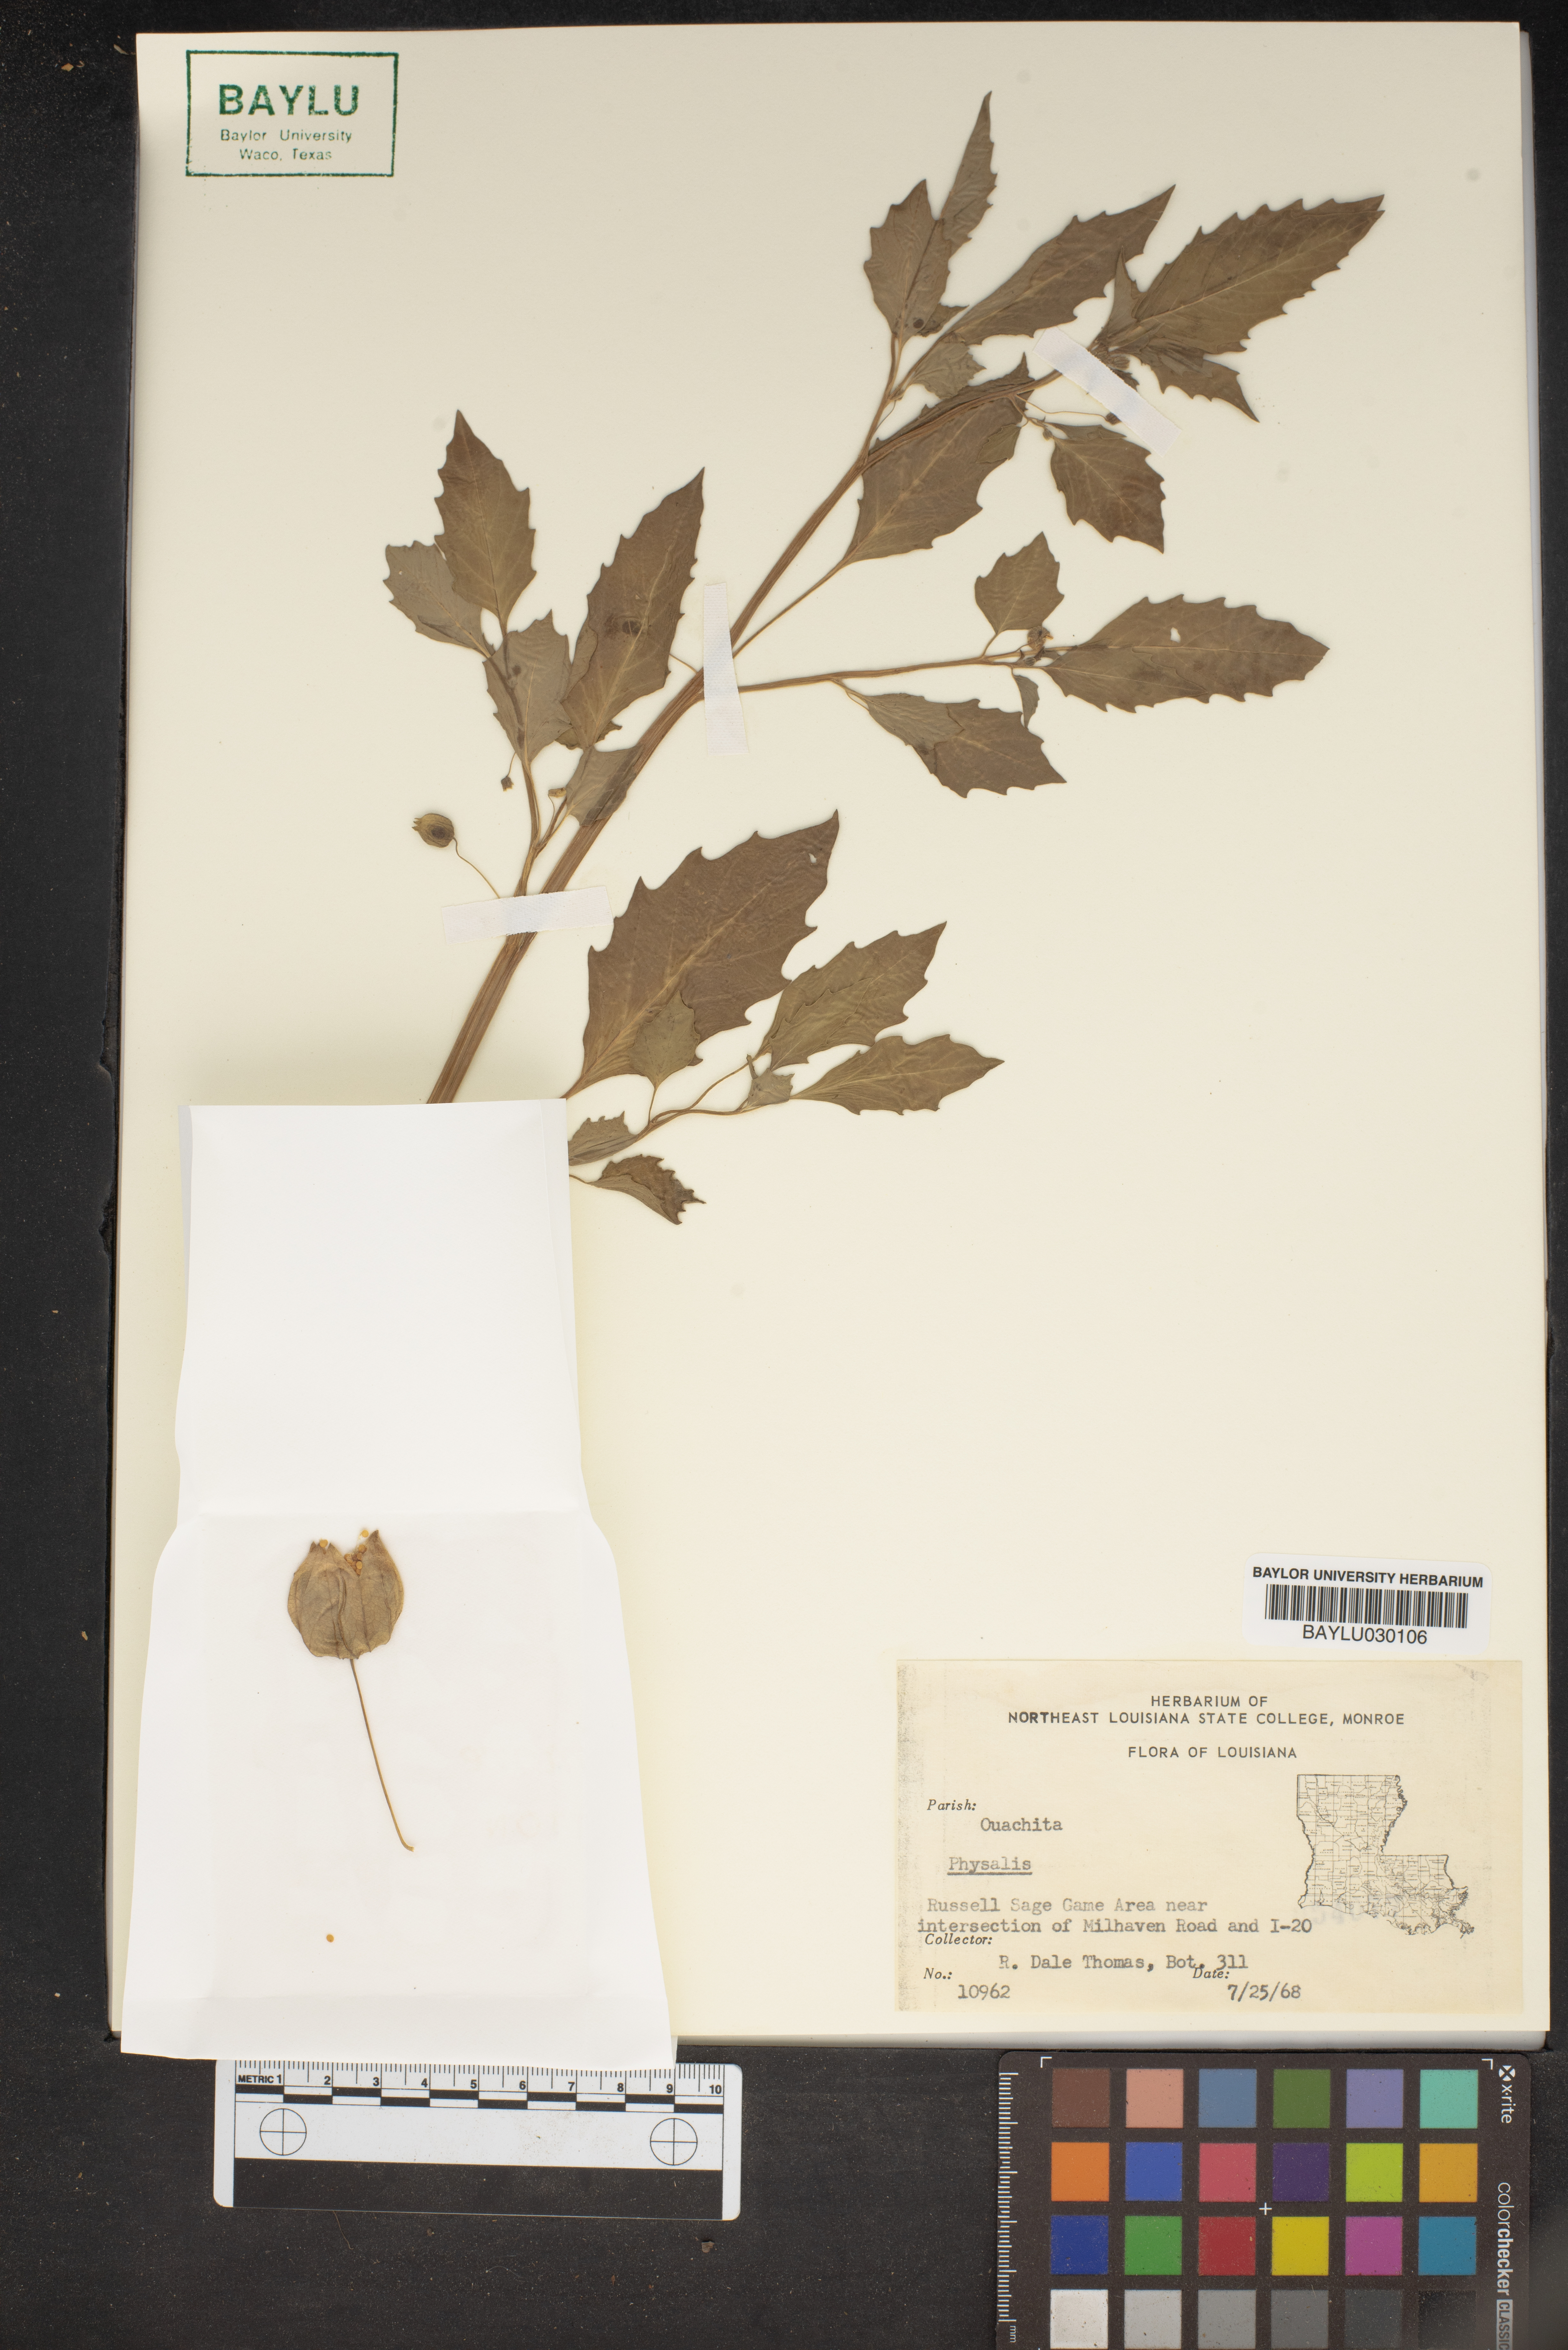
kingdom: Plantae
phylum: Tracheophyta
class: Magnoliopsida
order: Solanales
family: Solanaceae
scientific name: Solanaceae
